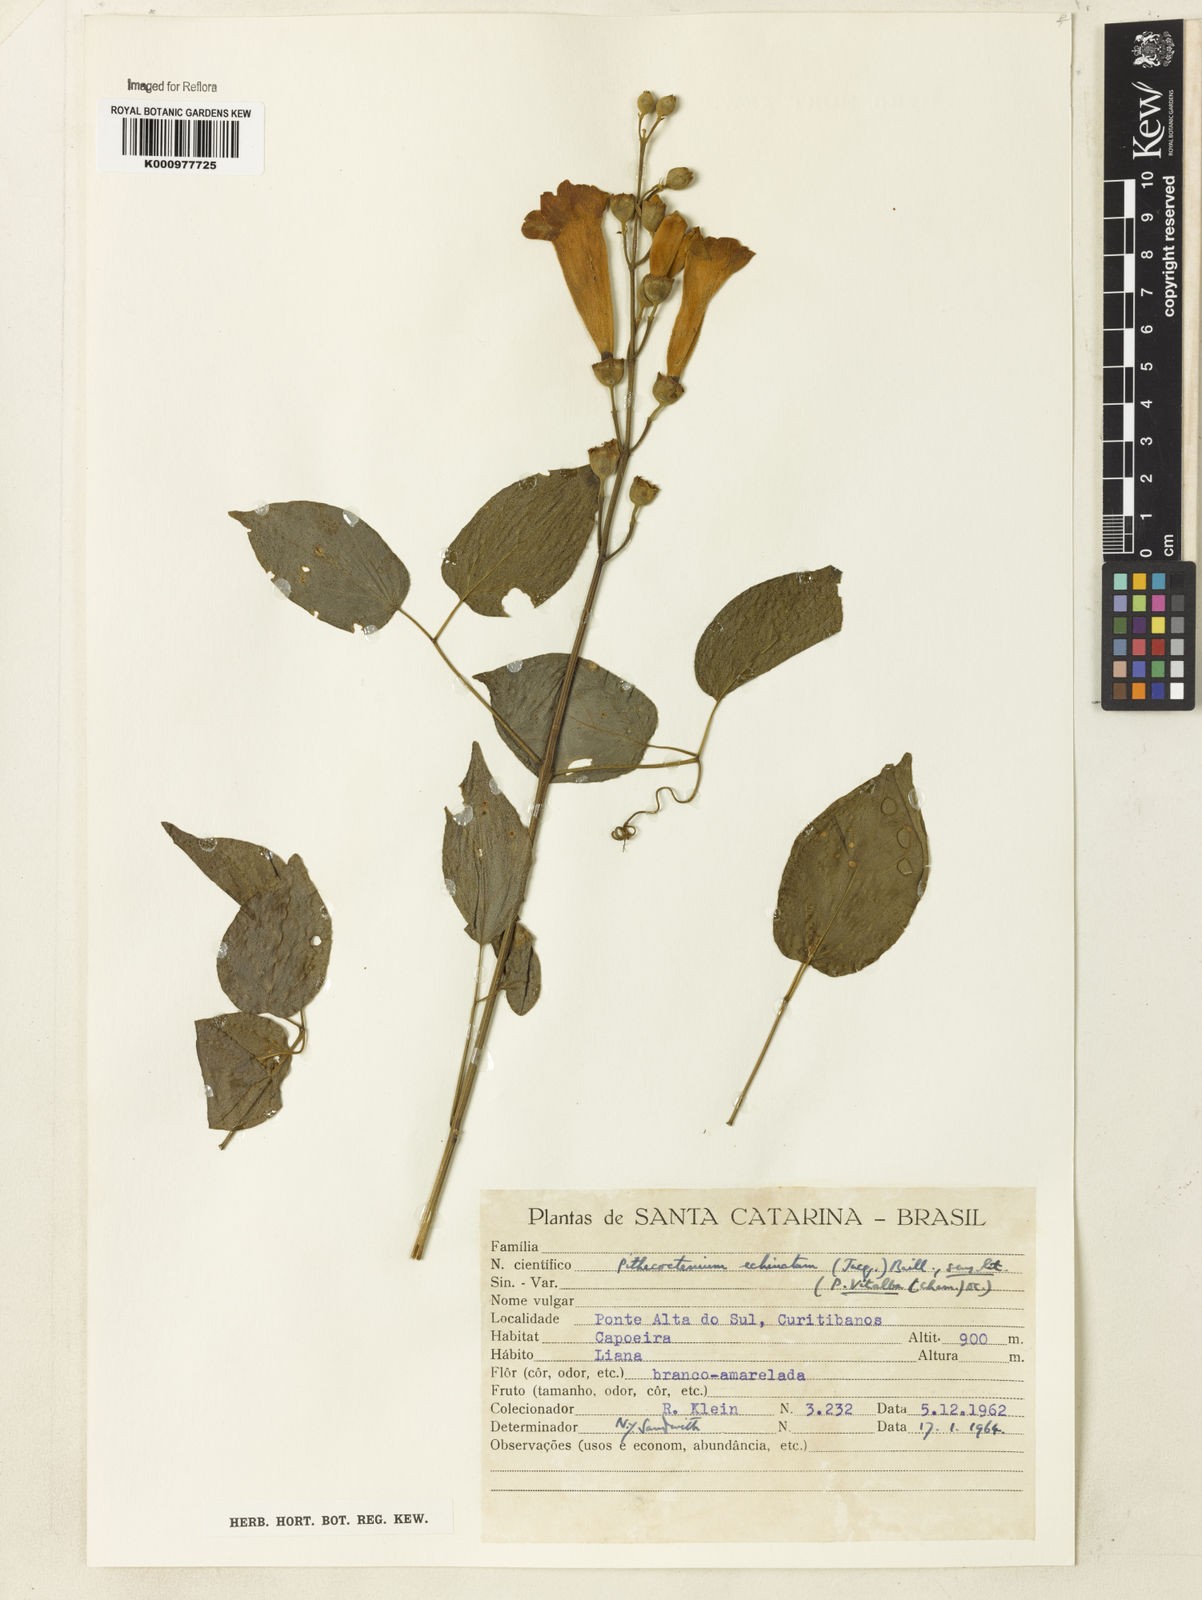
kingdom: Plantae
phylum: Tracheophyta
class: Magnoliopsida
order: Lamiales
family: Bignoniaceae
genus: Amphilophium
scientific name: Amphilophium crucigerum
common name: Monkey comb
